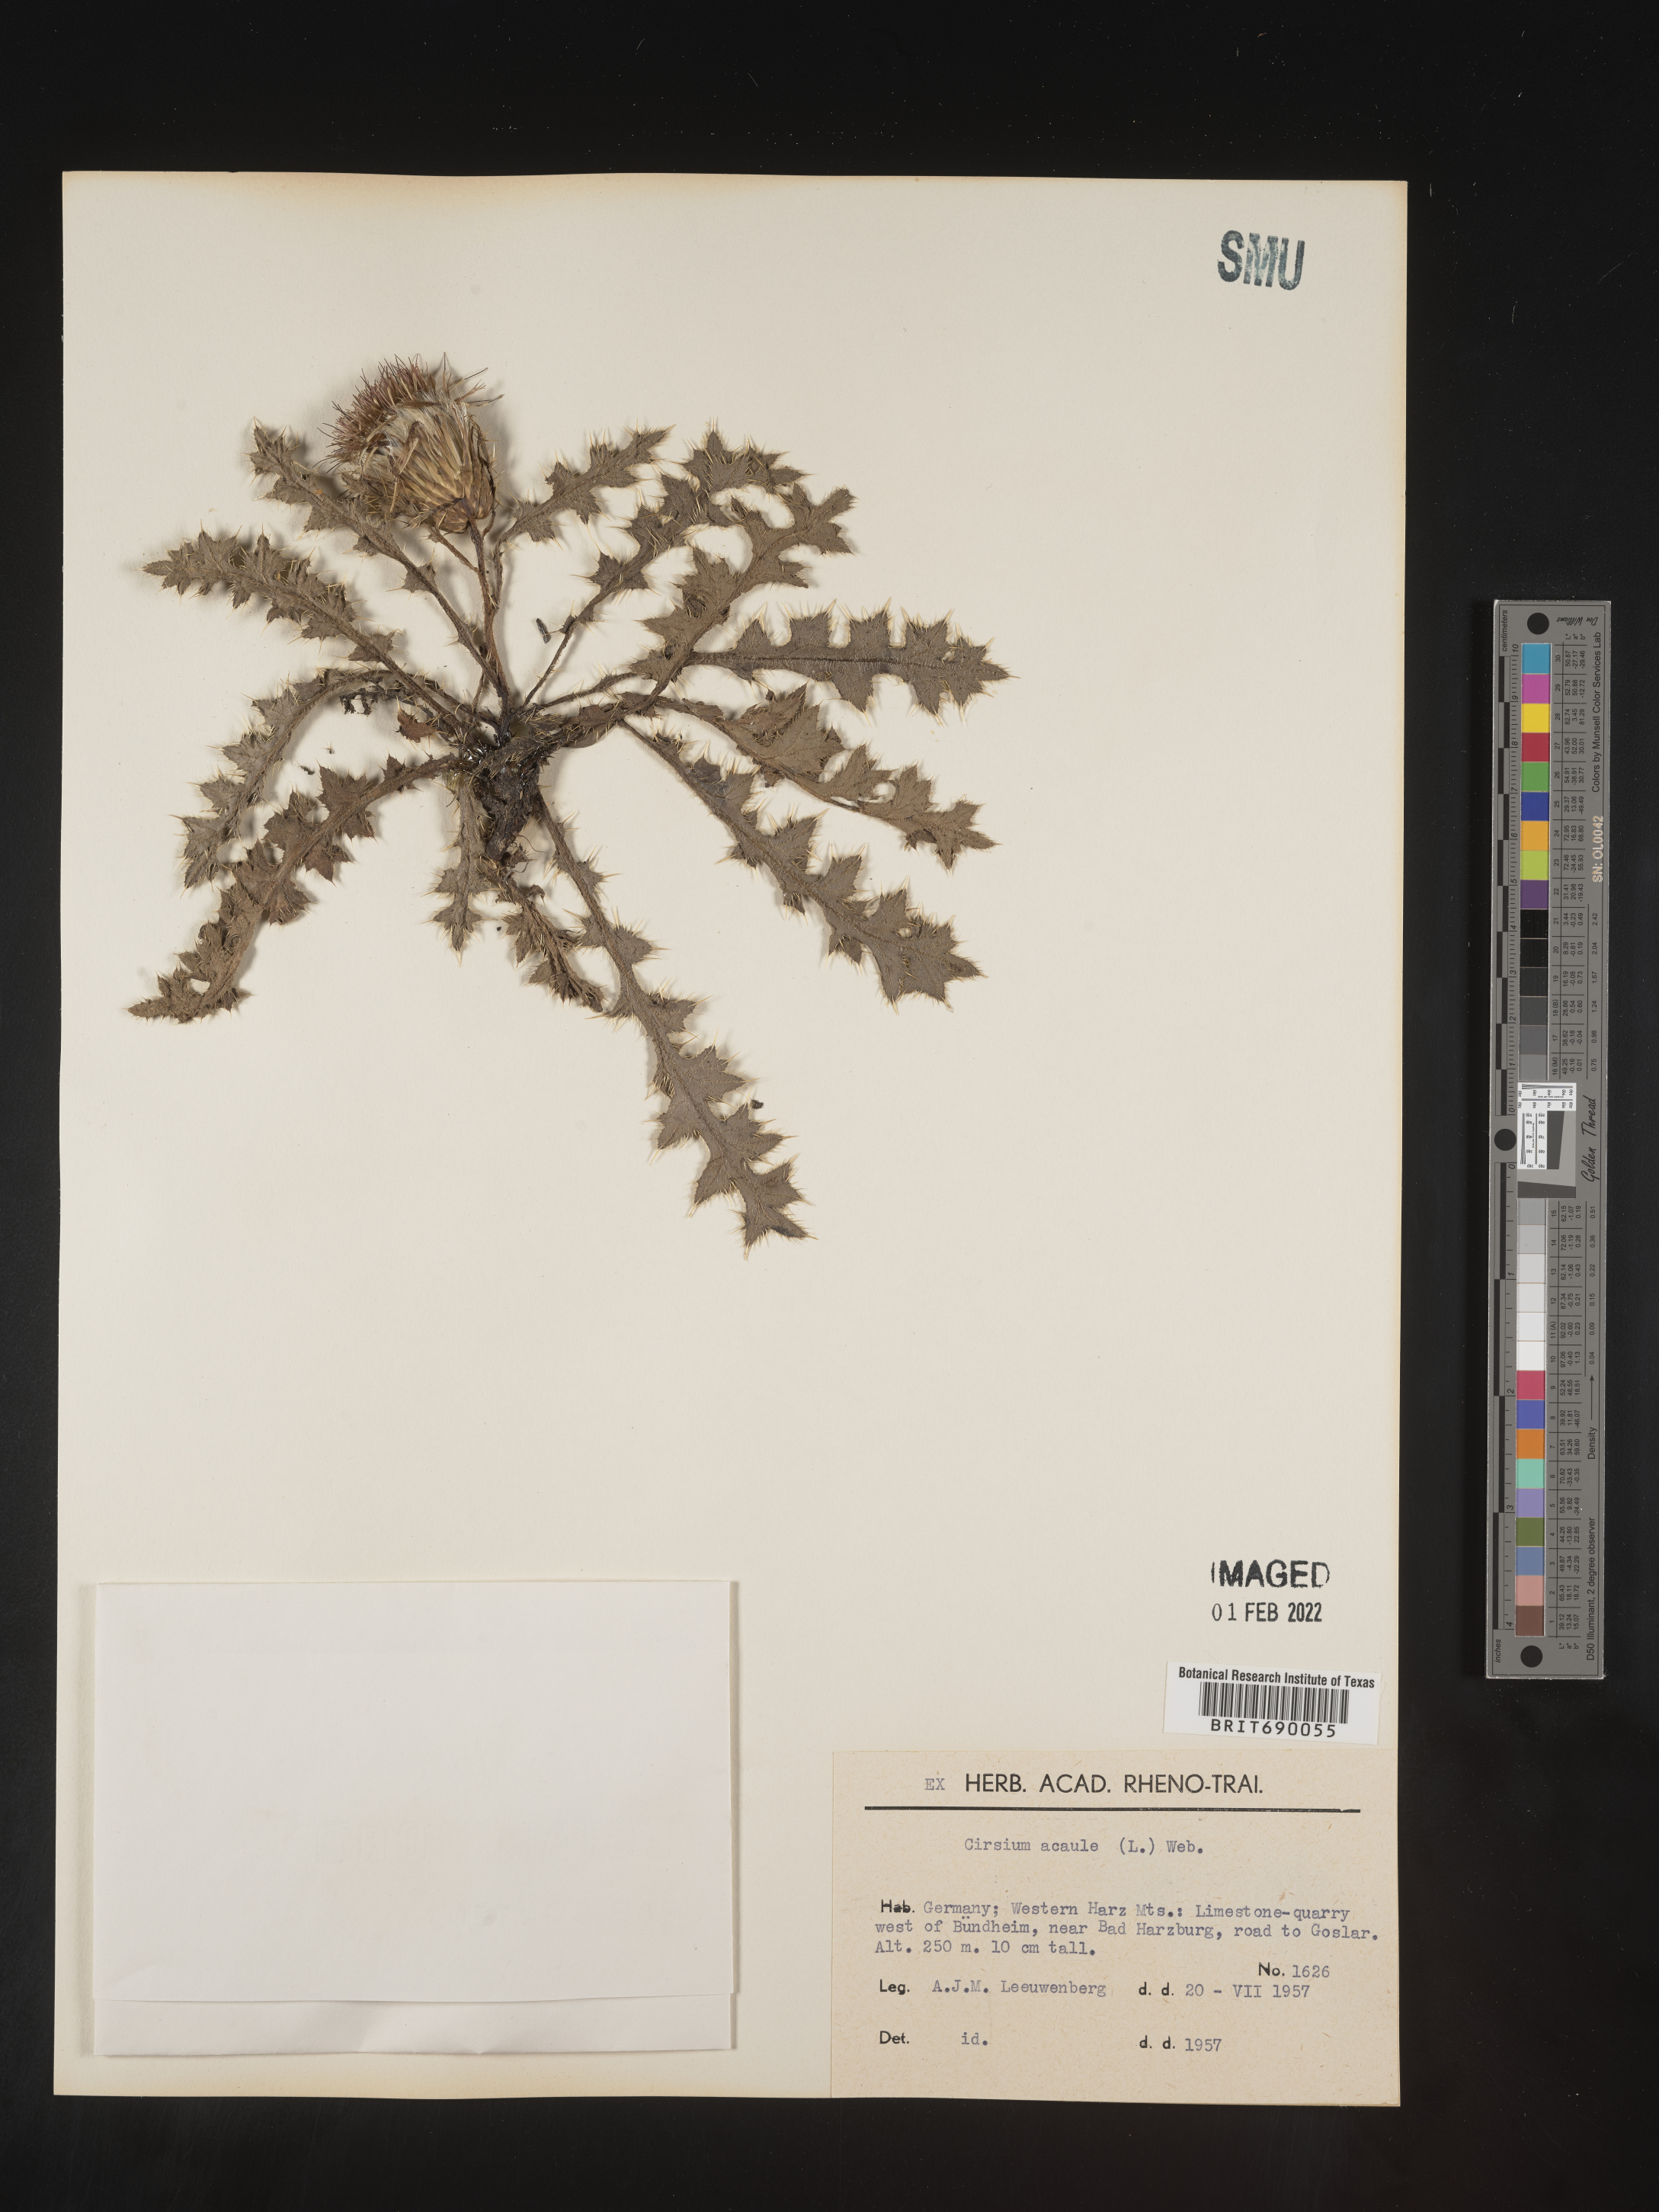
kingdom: Plantae
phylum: Tracheophyta
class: Magnoliopsida
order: Asterales
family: Asteraceae
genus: Cirsium
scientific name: Cirsium
